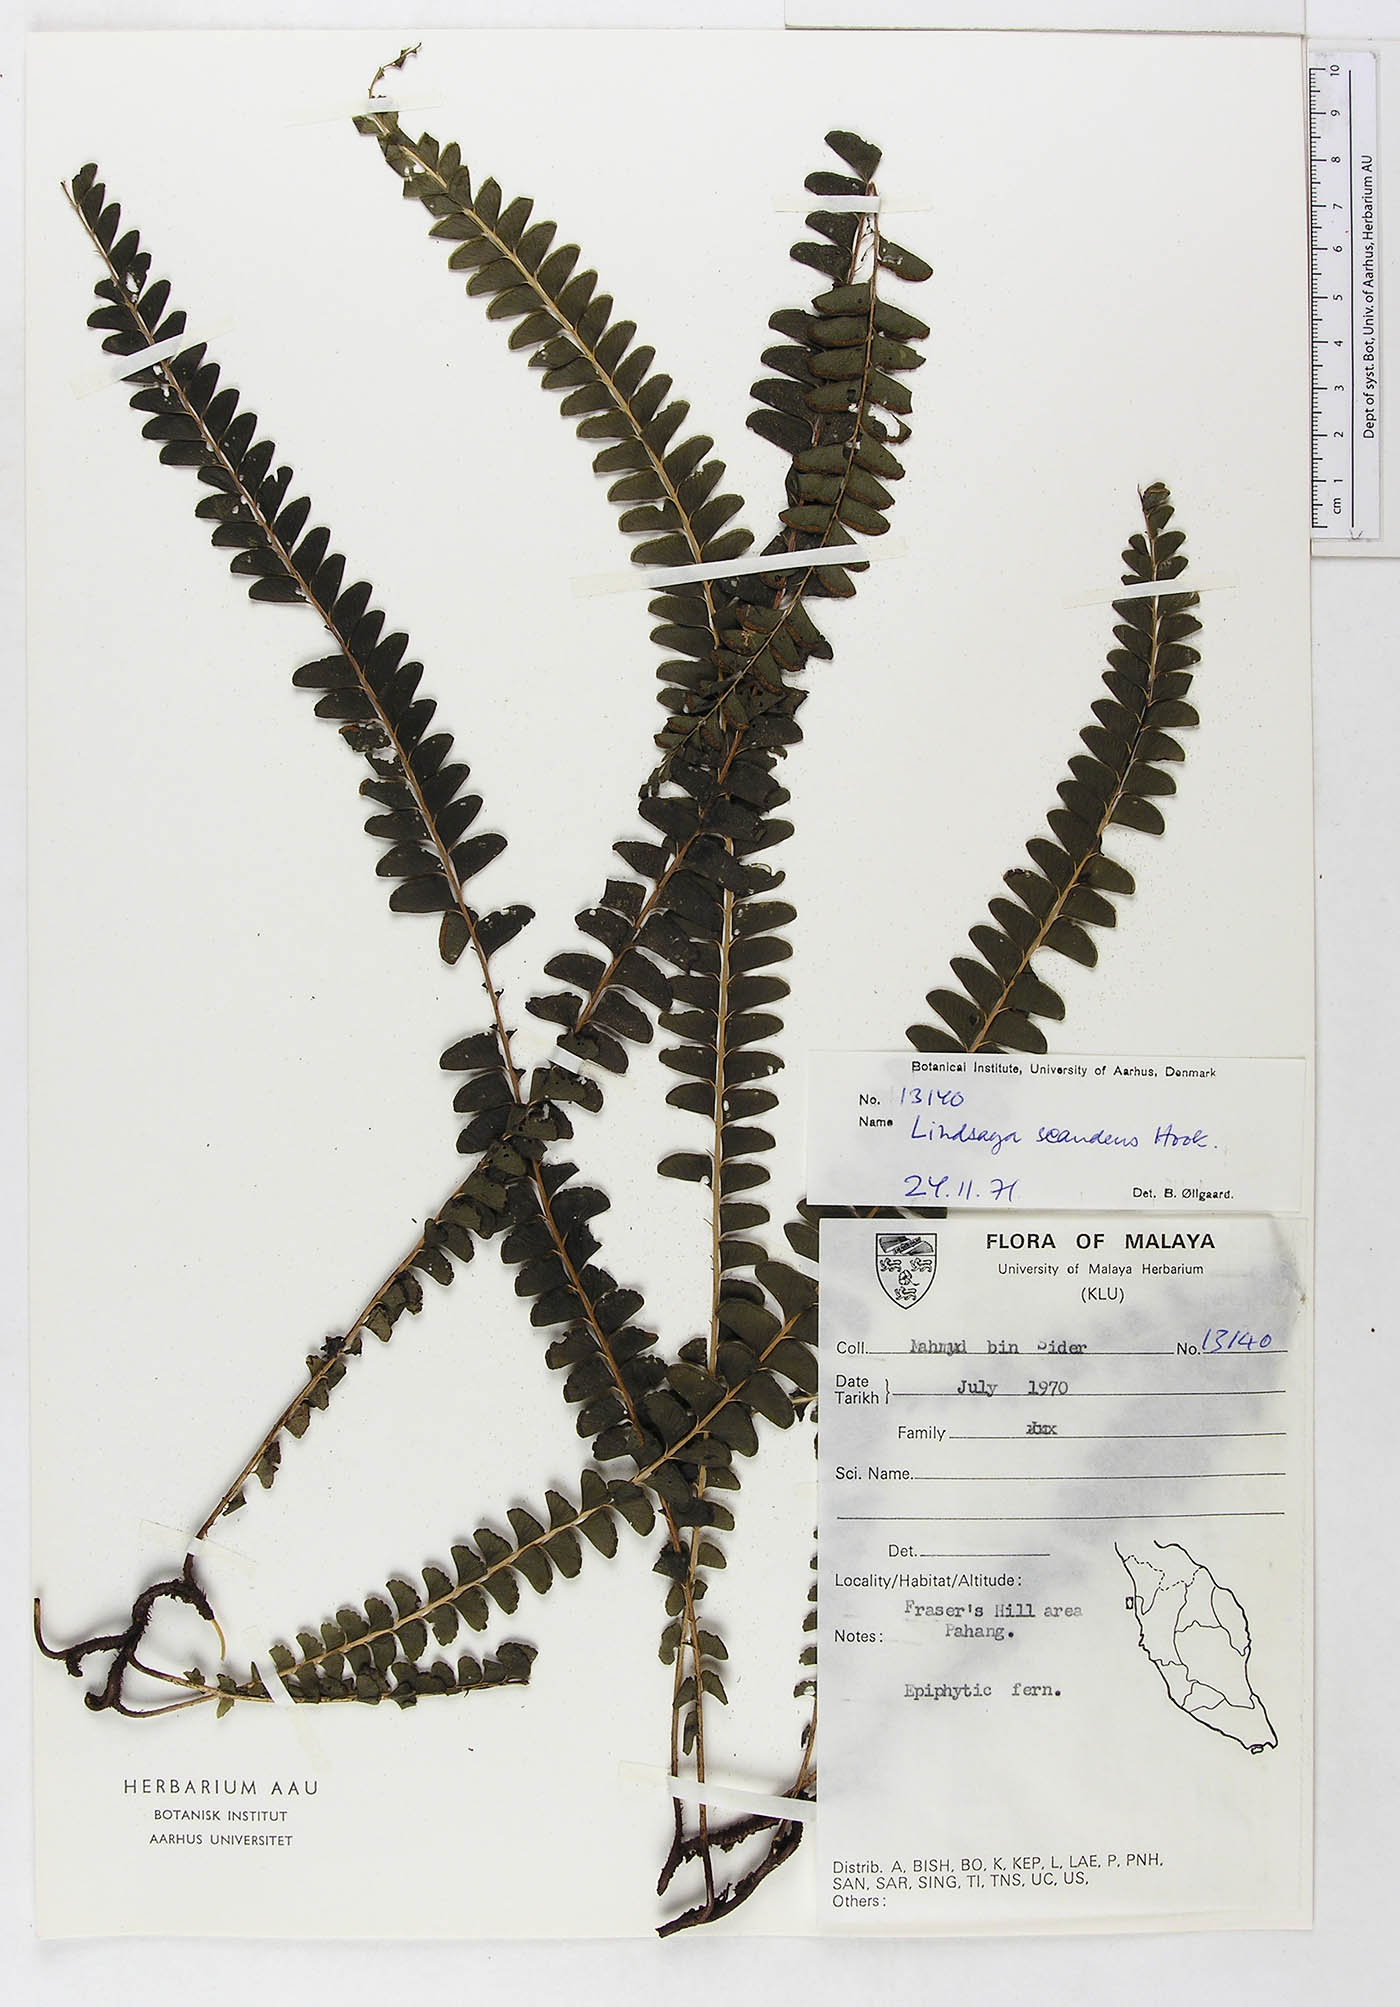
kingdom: Plantae
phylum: Tracheophyta
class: Polypodiopsida
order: Polypodiales
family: Lindsaeaceae
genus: Nesolindsaea
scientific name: Nesolindsaea caudata
